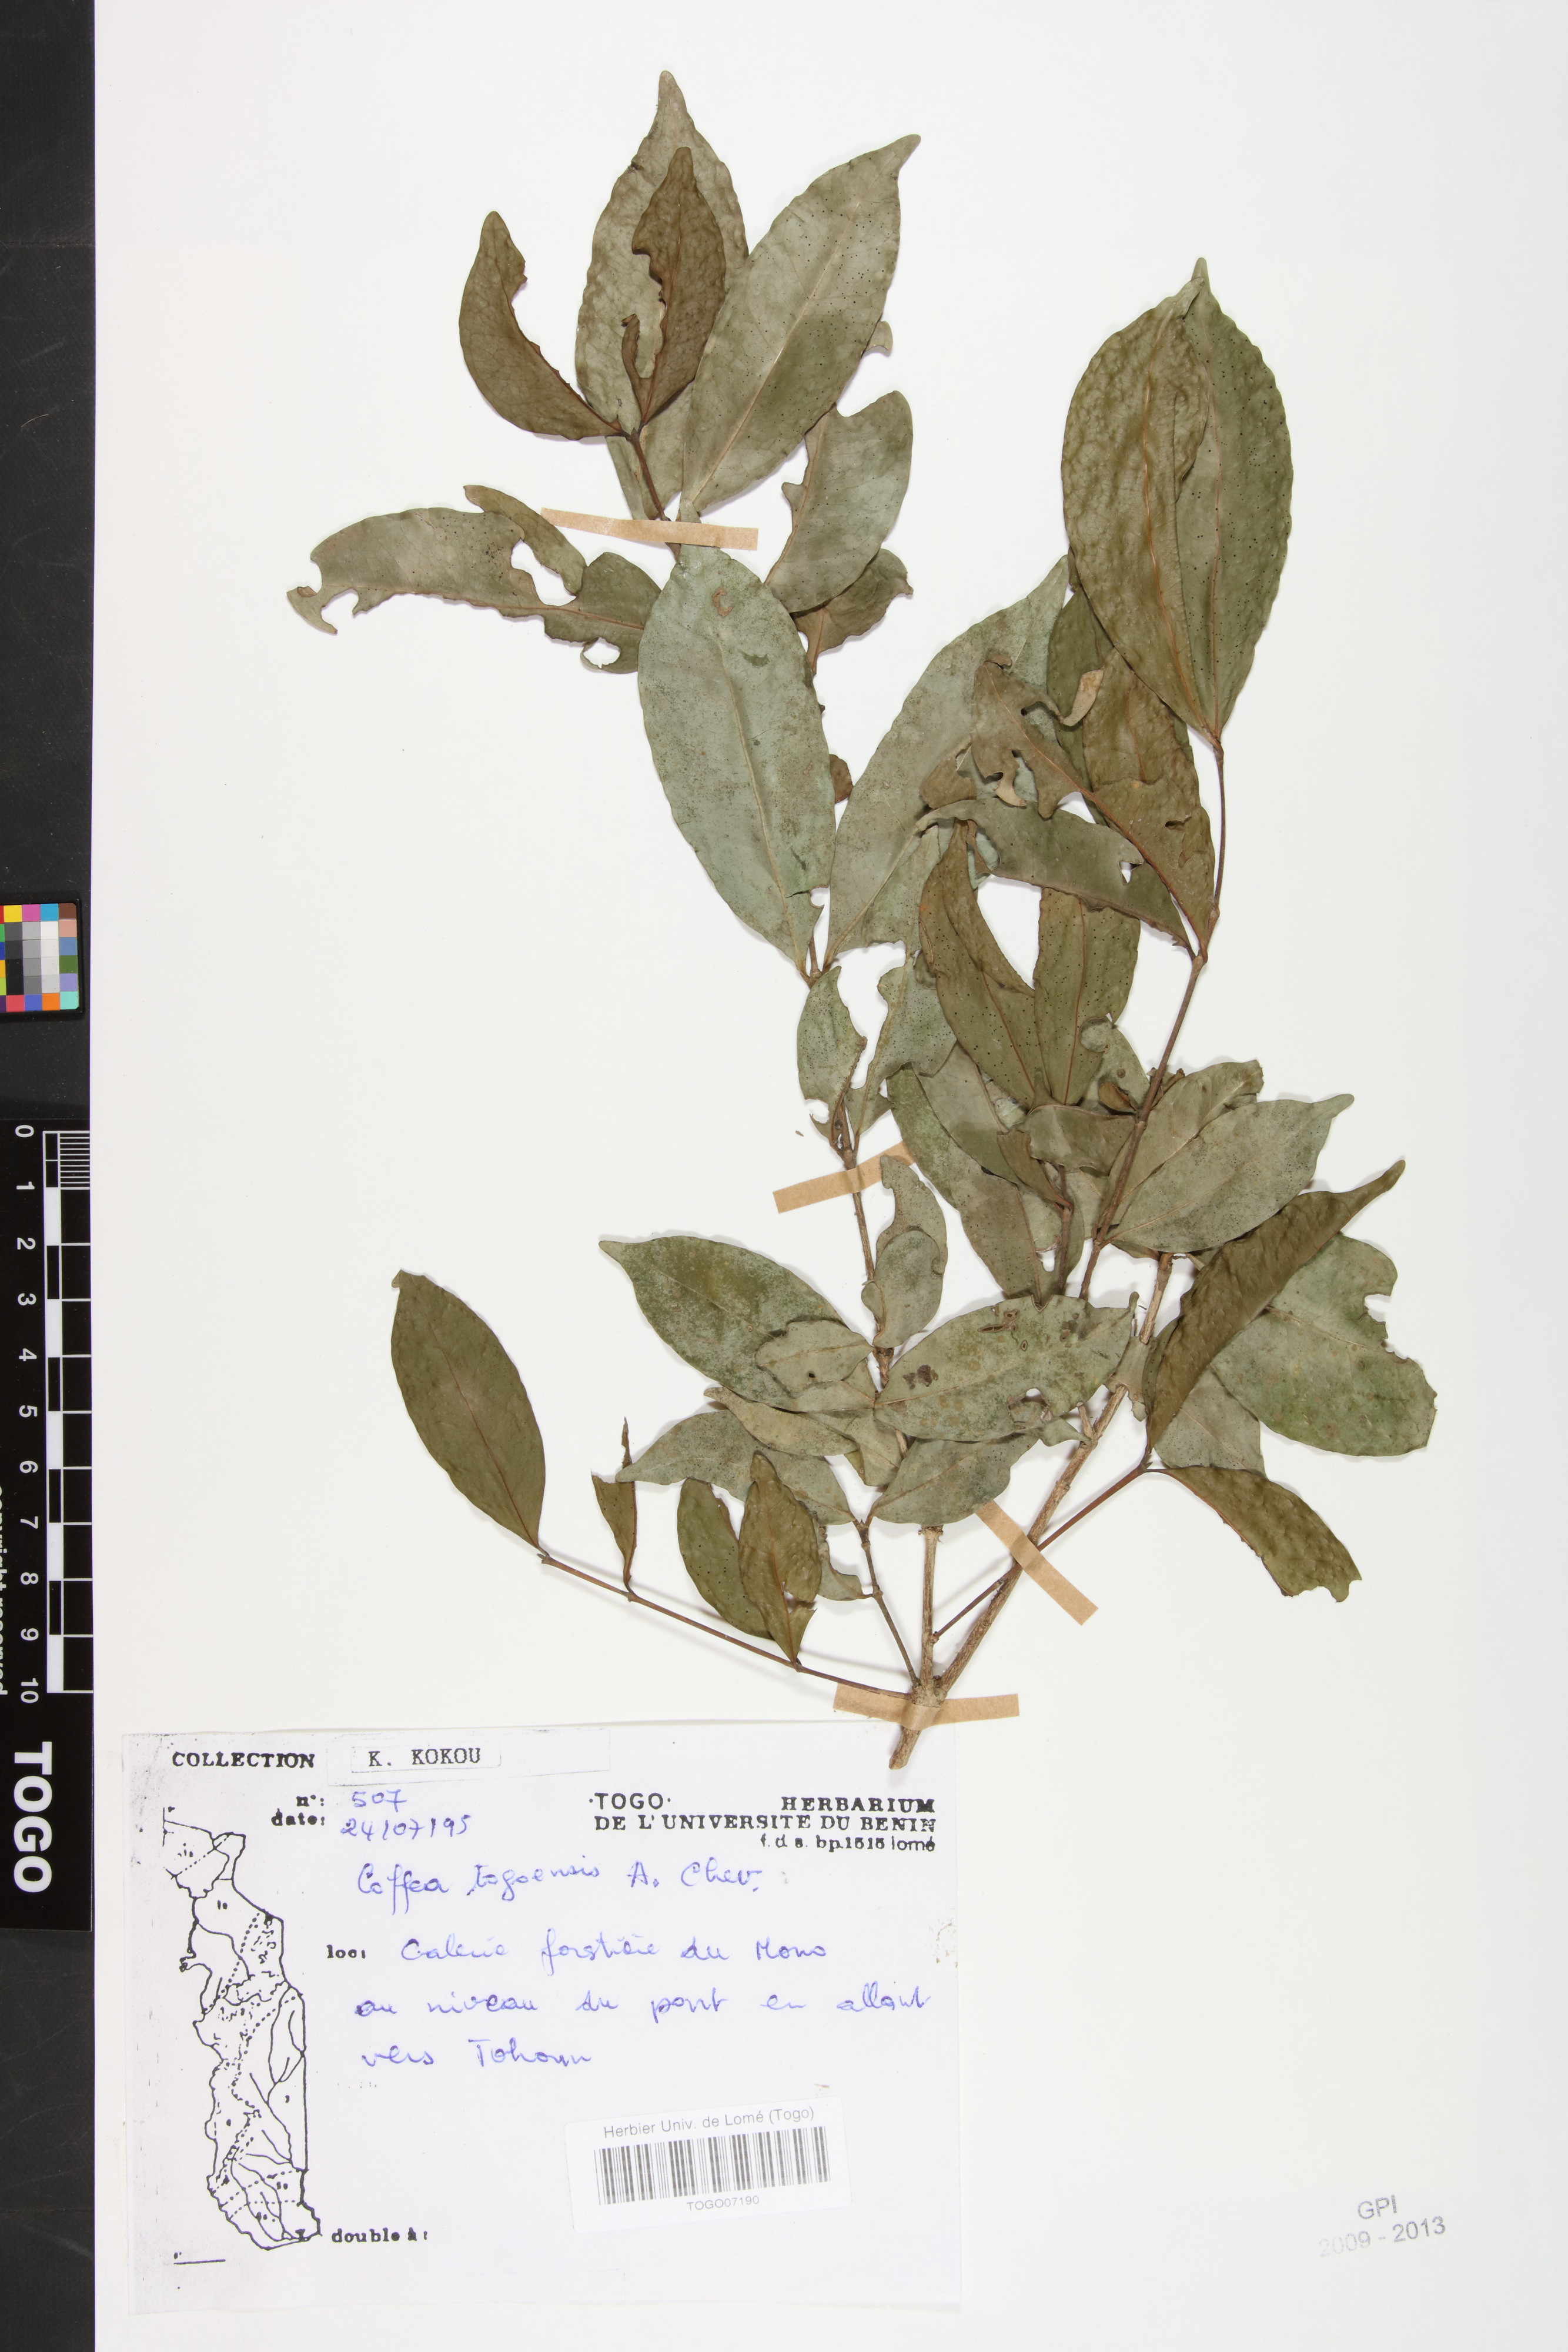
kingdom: Plantae
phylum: Tracheophyta
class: Magnoliopsida
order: Gentianales
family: Rubiaceae
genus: Coffea
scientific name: Coffea togoensis
